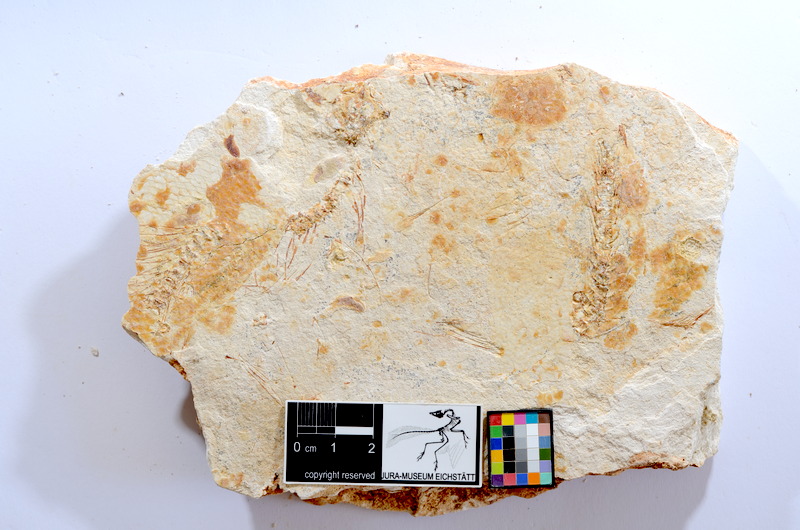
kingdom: Animalia
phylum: Chordata
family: Ascalaboidae
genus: Tharsis
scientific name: Tharsis dubius
